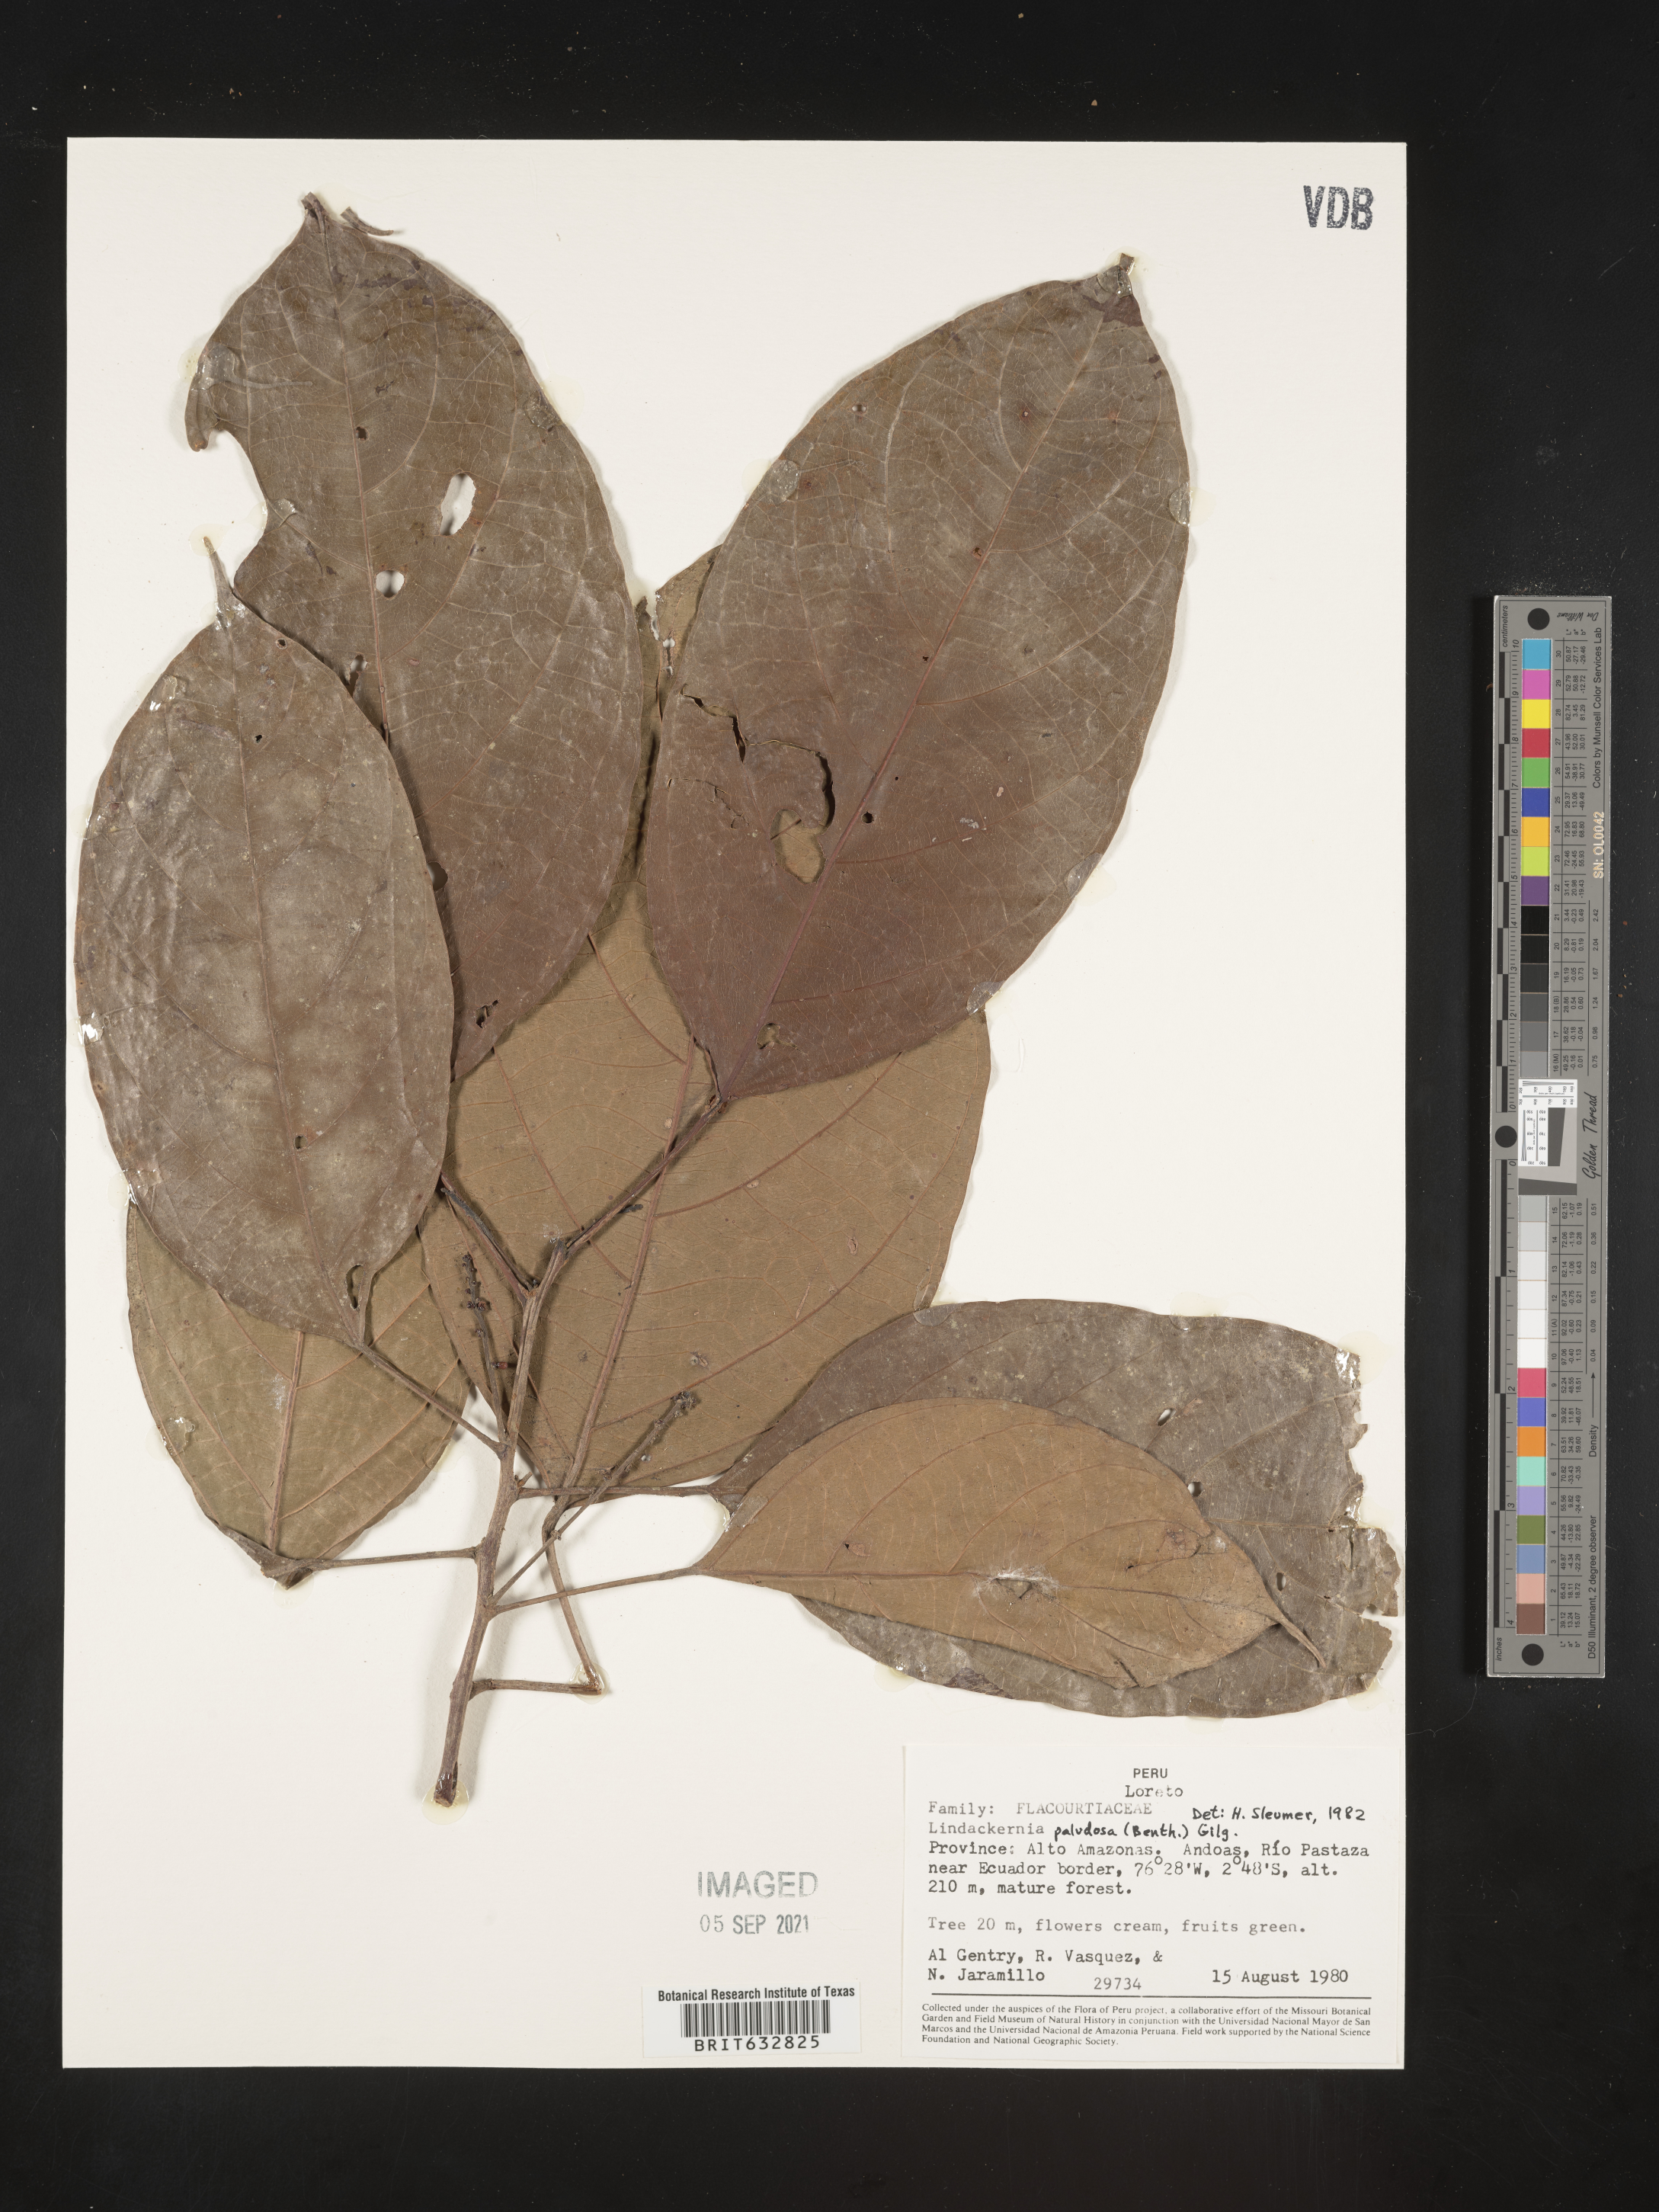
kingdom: Plantae
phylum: Tracheophyta
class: Magnoliopsida
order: Malpighiales
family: Achariaceae
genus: Lindackeria
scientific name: Lindackeria paludosa
